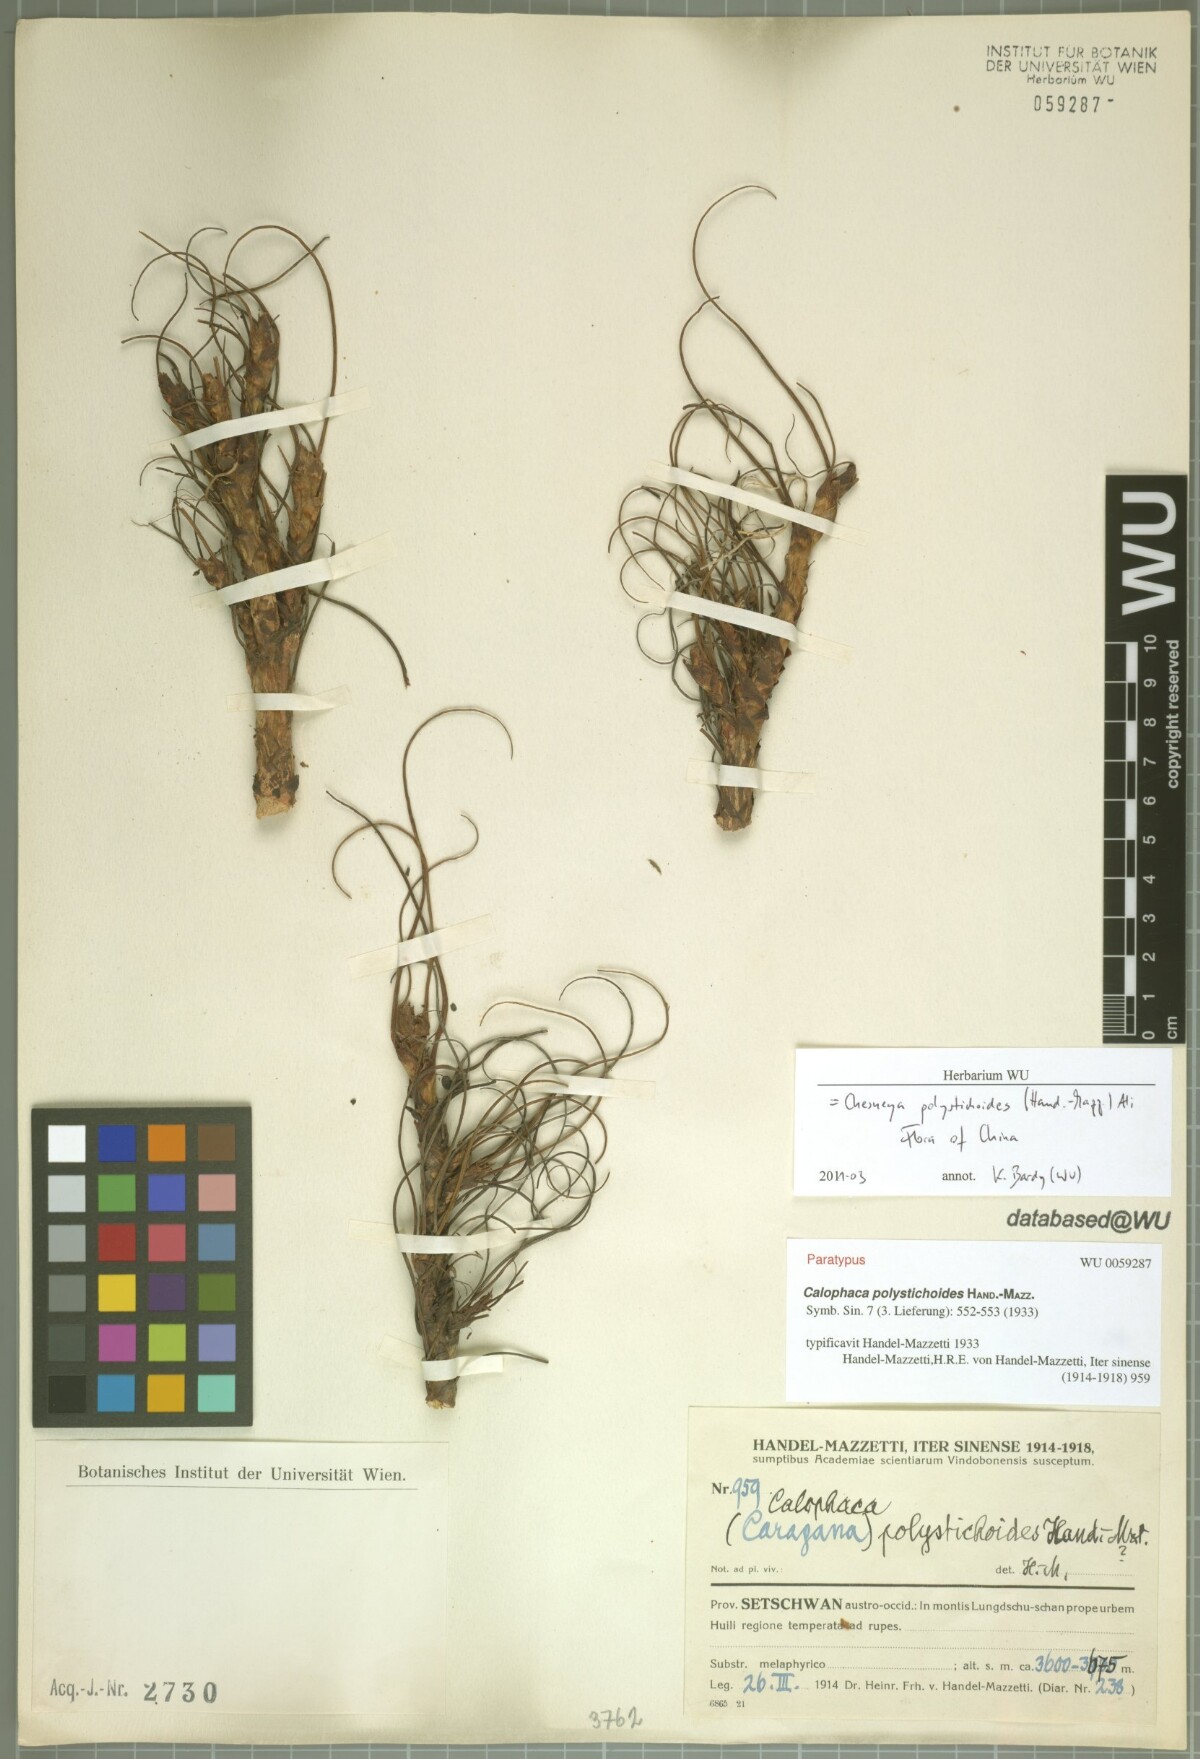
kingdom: Plantae
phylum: Tracheophyta
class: Magnoliopsida
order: Fabales
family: Fabaceae
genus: Chesneya
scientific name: Chesneya polystichoides
